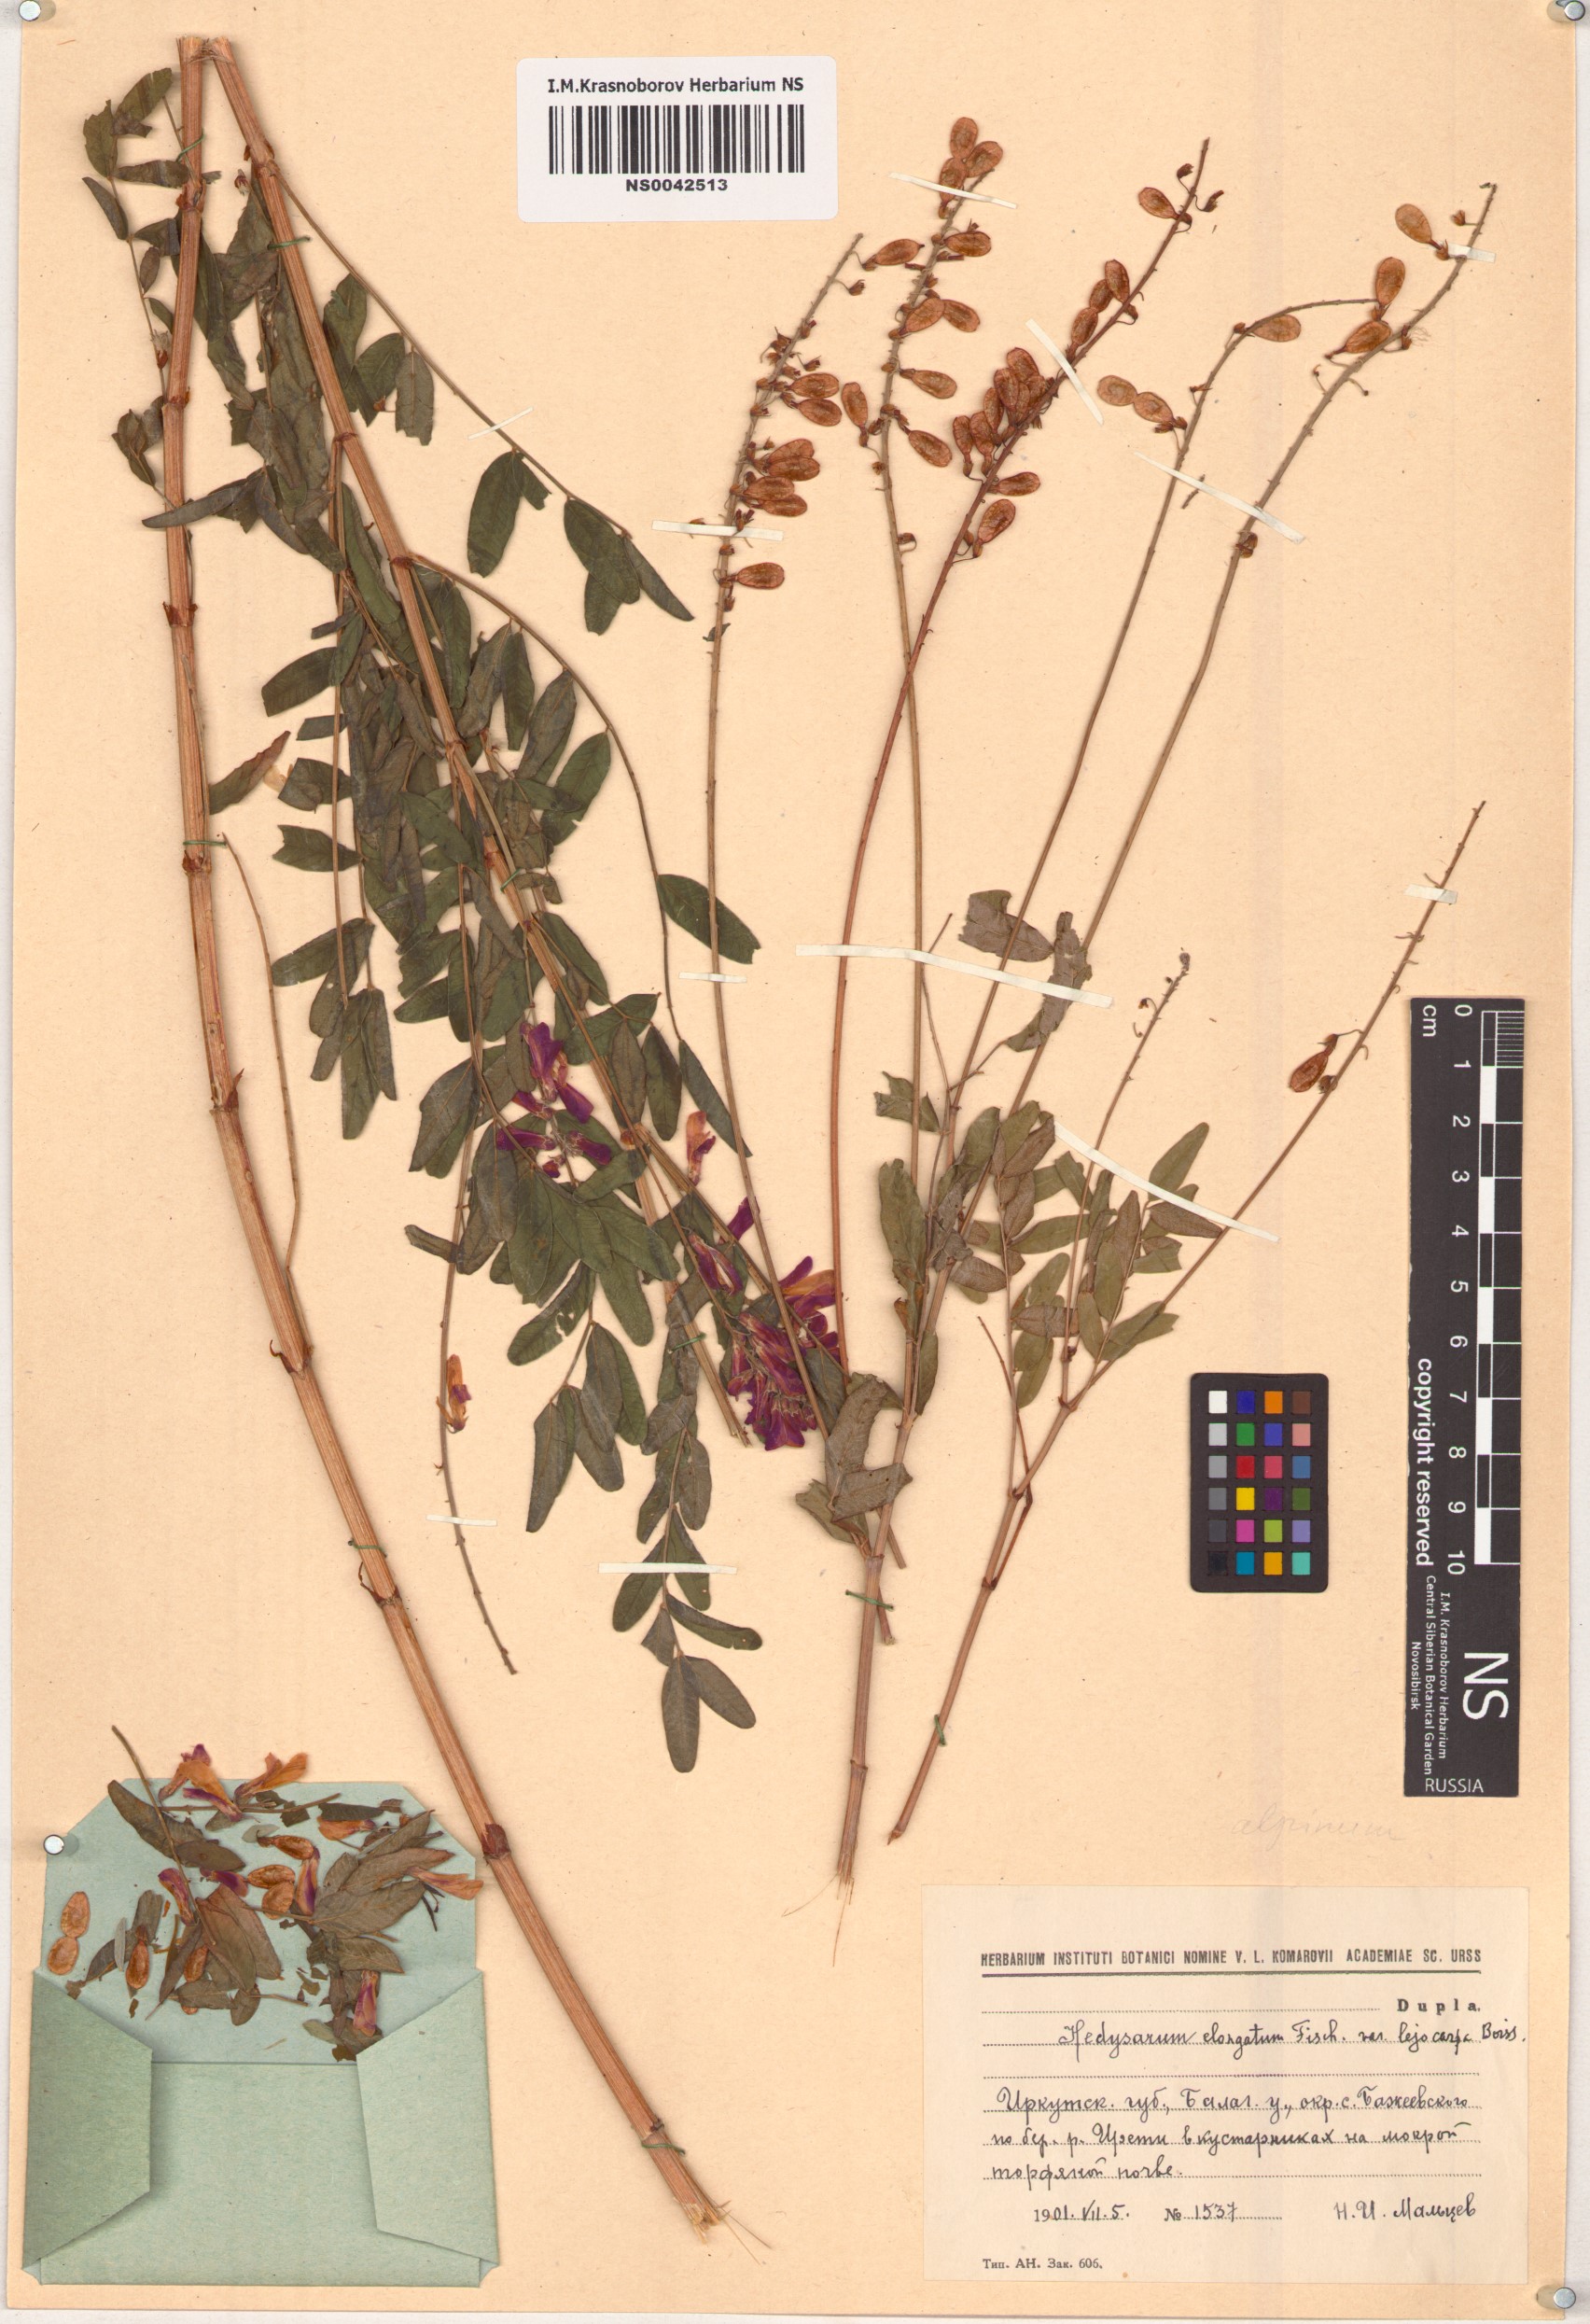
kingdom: Plantae
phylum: Tracheophyta
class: Magnoliopsida
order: Fabales
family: Fabaceae
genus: Hedysarum
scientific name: Hedysarum alpinum
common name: Alpine sweet-vetch
